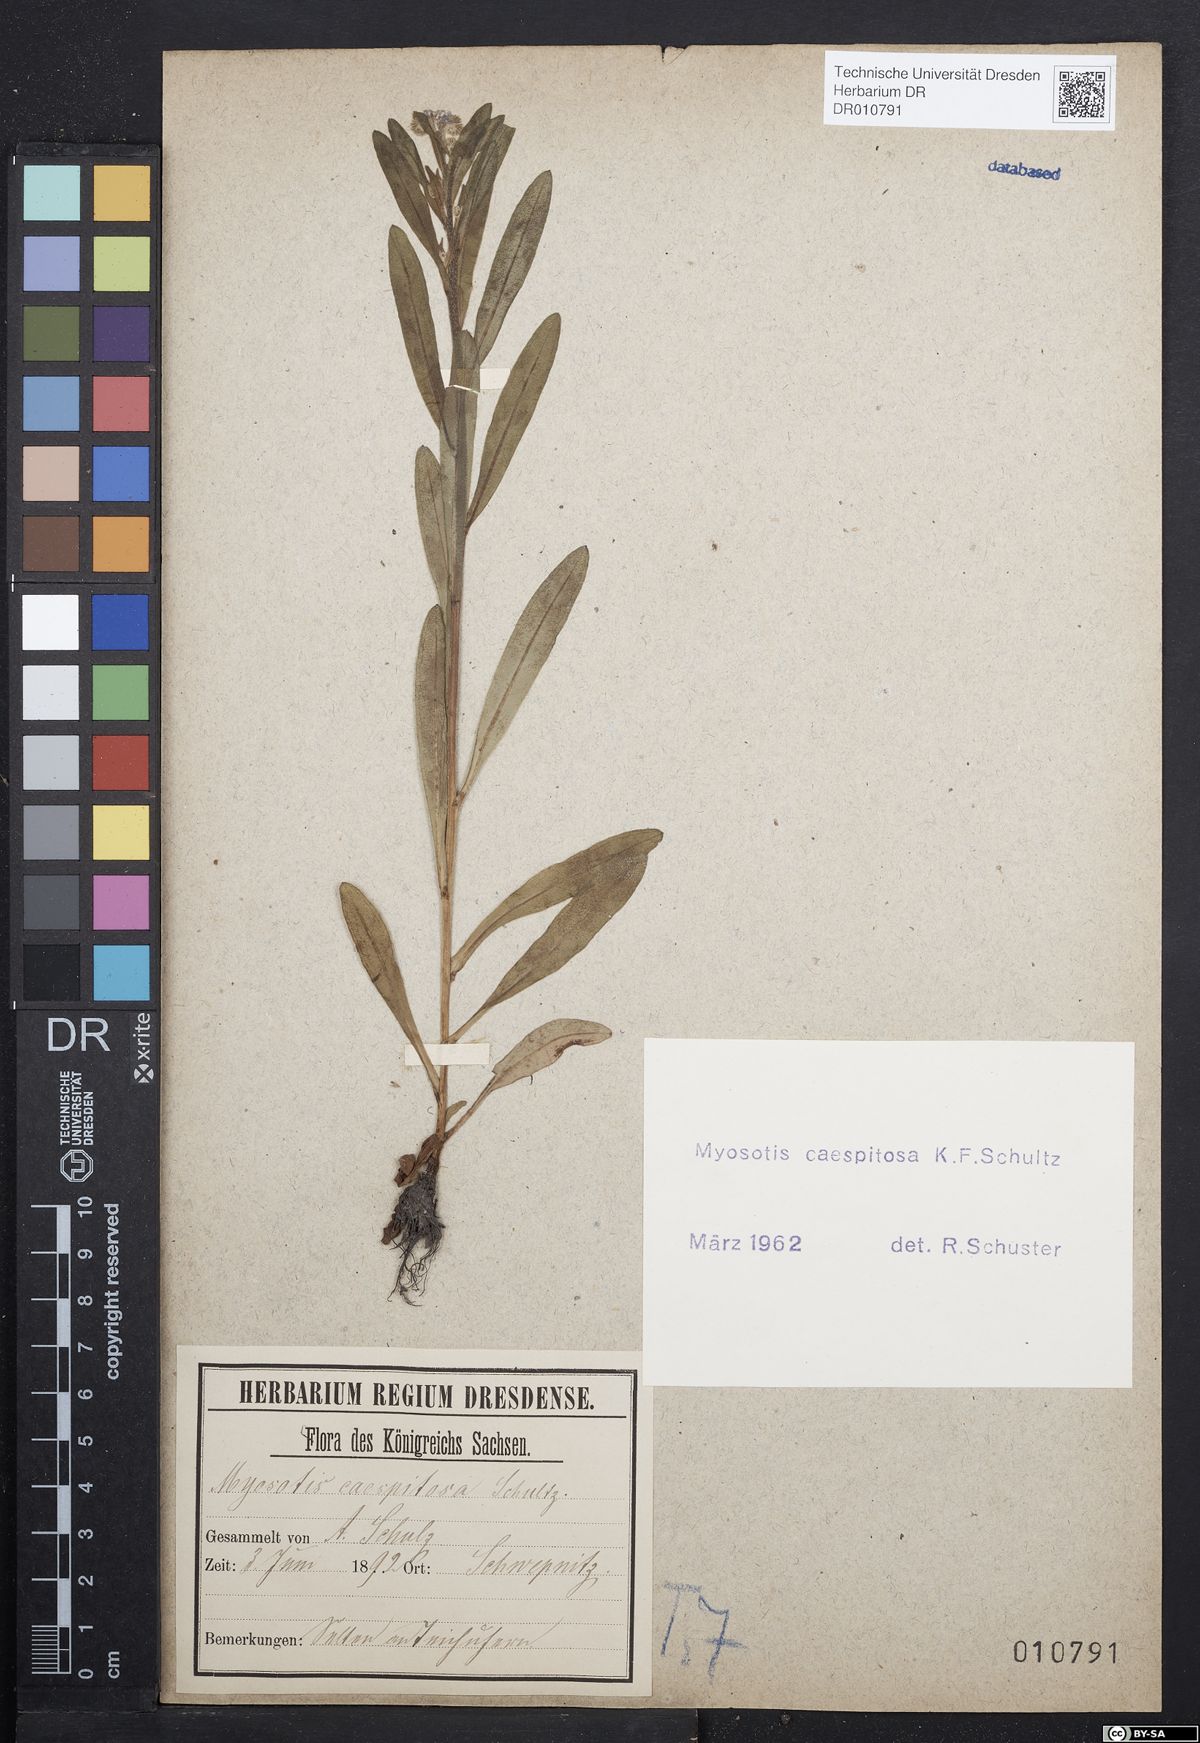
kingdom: Plantae
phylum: Tracheophyta
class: Magnoliopsida
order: Boraginales
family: Boraginaceae
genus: Myosotis
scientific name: Myosotis laxa
